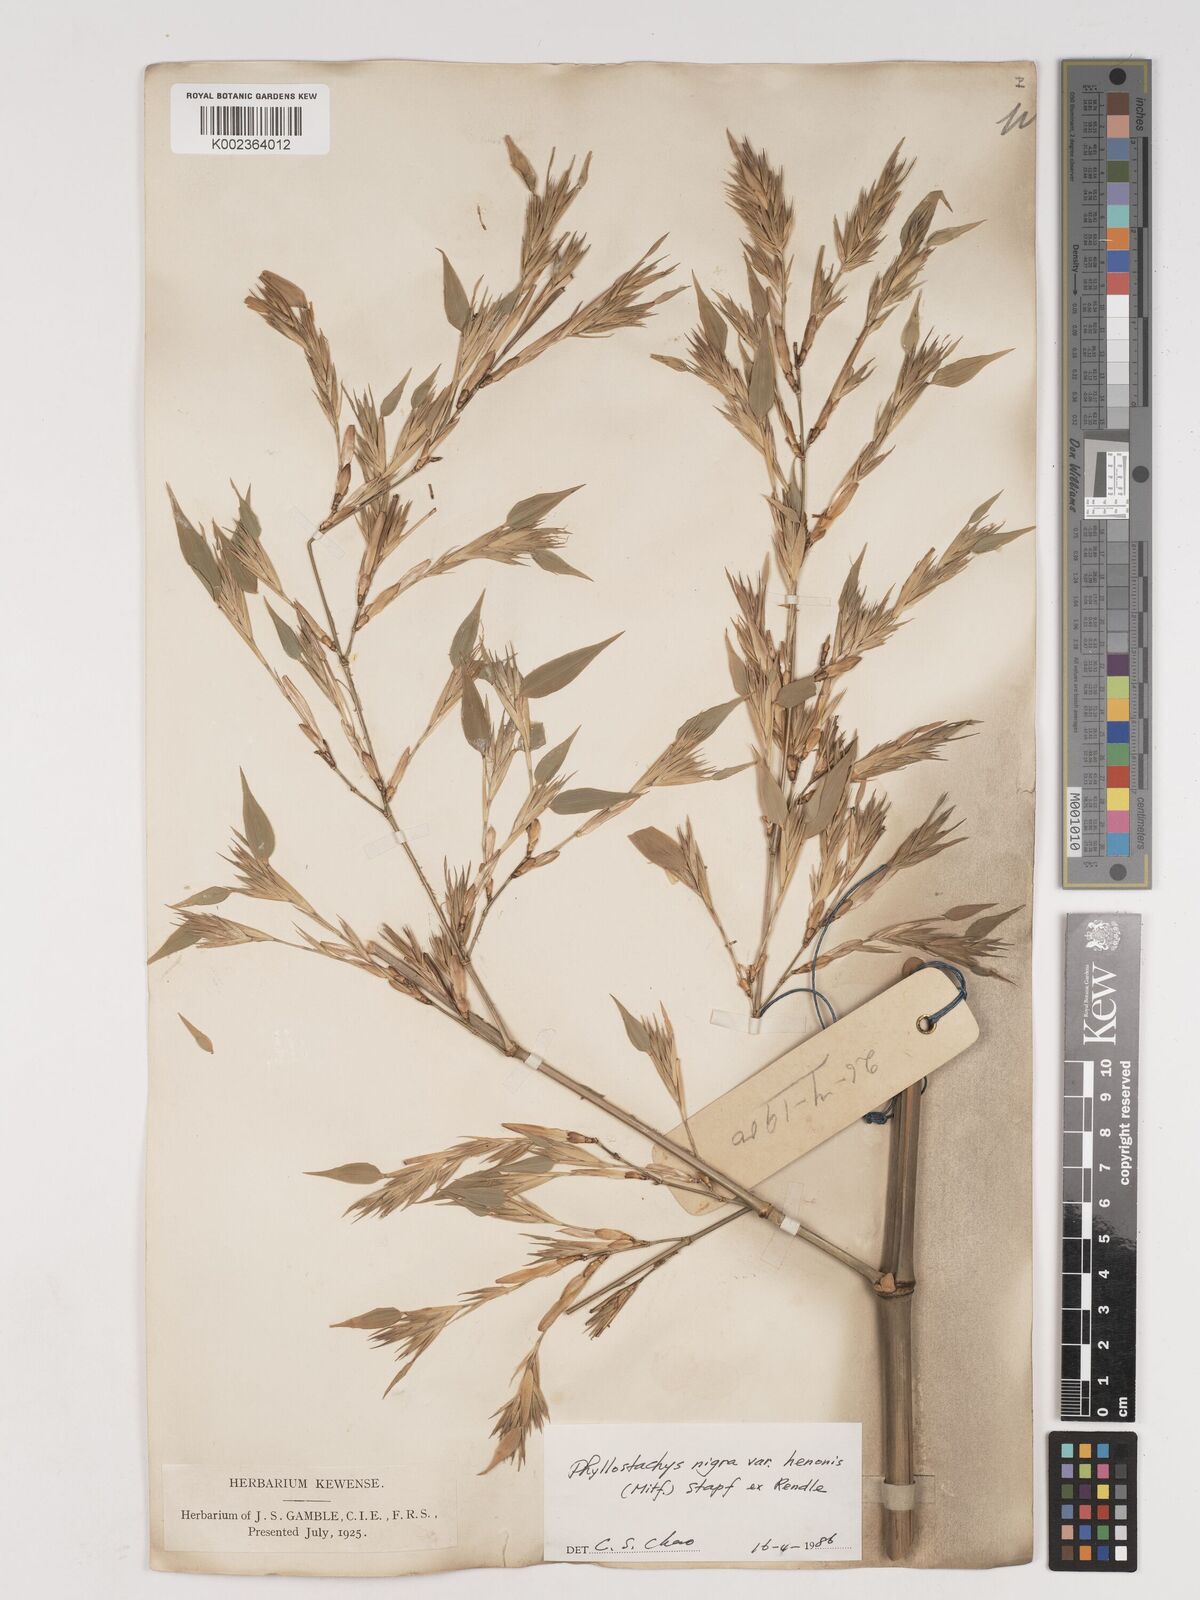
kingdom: Plantae
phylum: Tracheophyta
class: Liliopsida
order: Poales
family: Poaceae
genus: Phyllostachys
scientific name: Phyllostachys nigra
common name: Black bamboo
